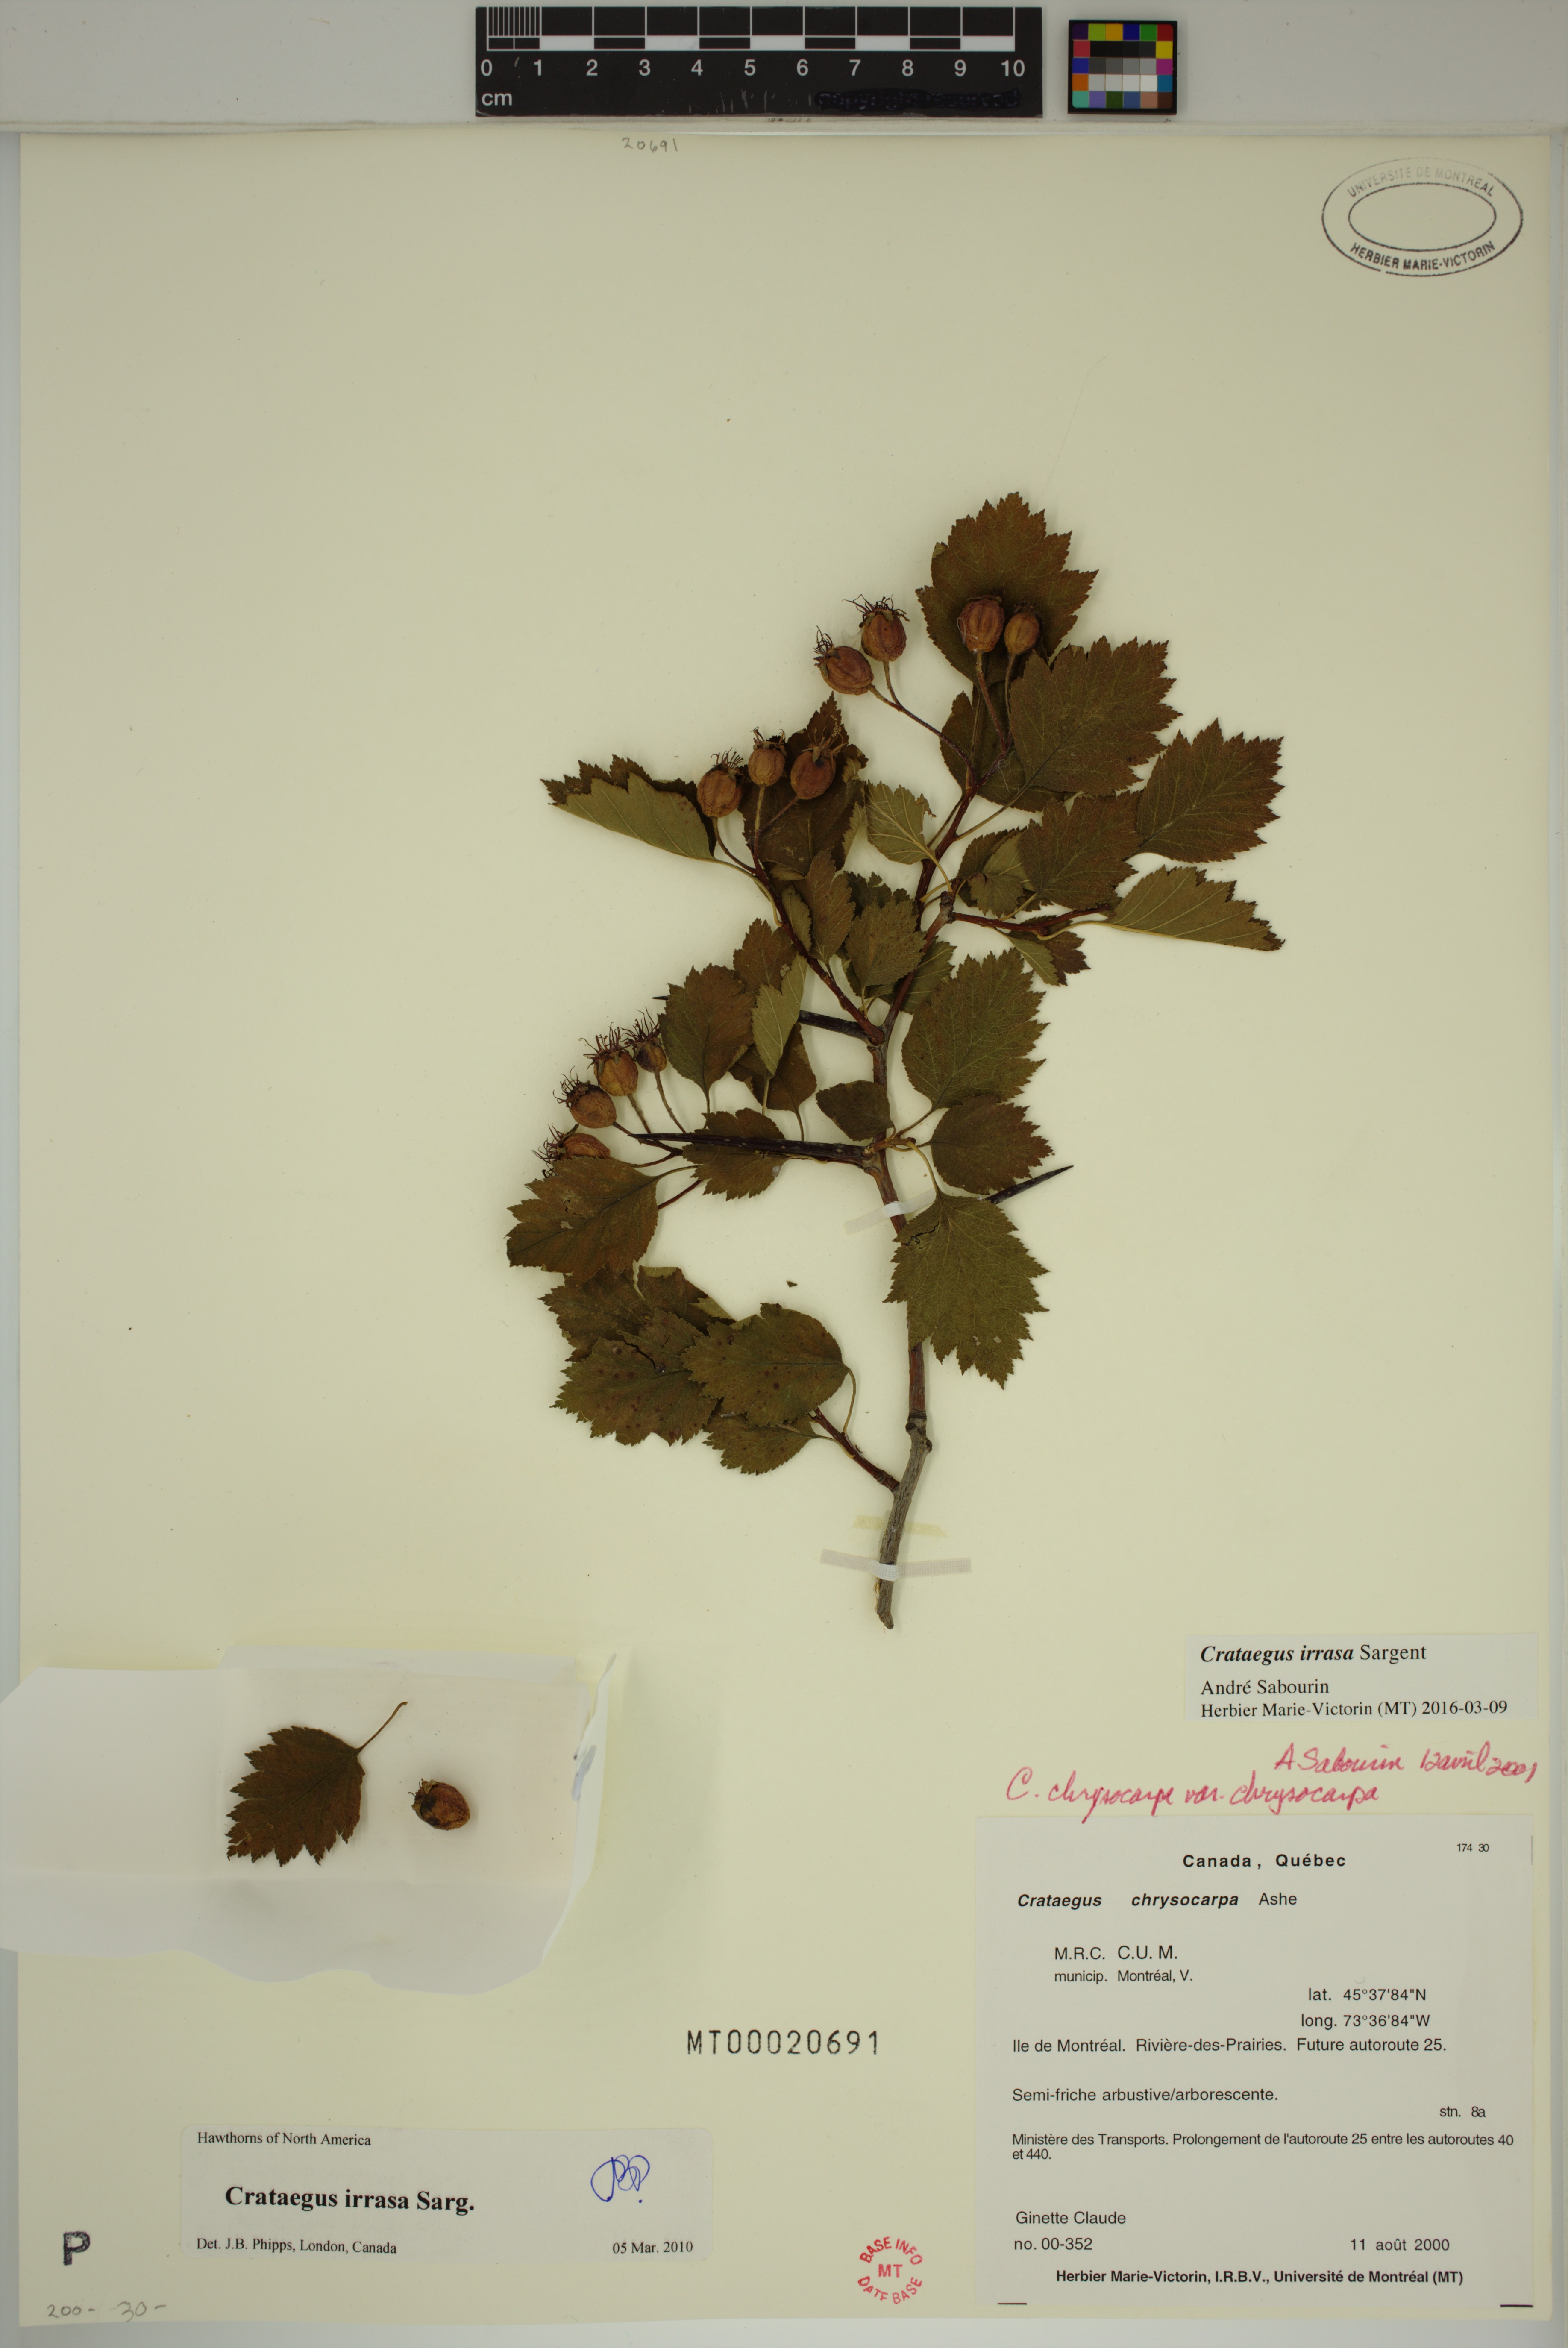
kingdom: Plantae
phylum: Tracheophyta
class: Magnoliopsida
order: Rosales
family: Rosaceae
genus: Crataegus
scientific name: Crataegus irrasa
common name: Unshorn hawthorn
